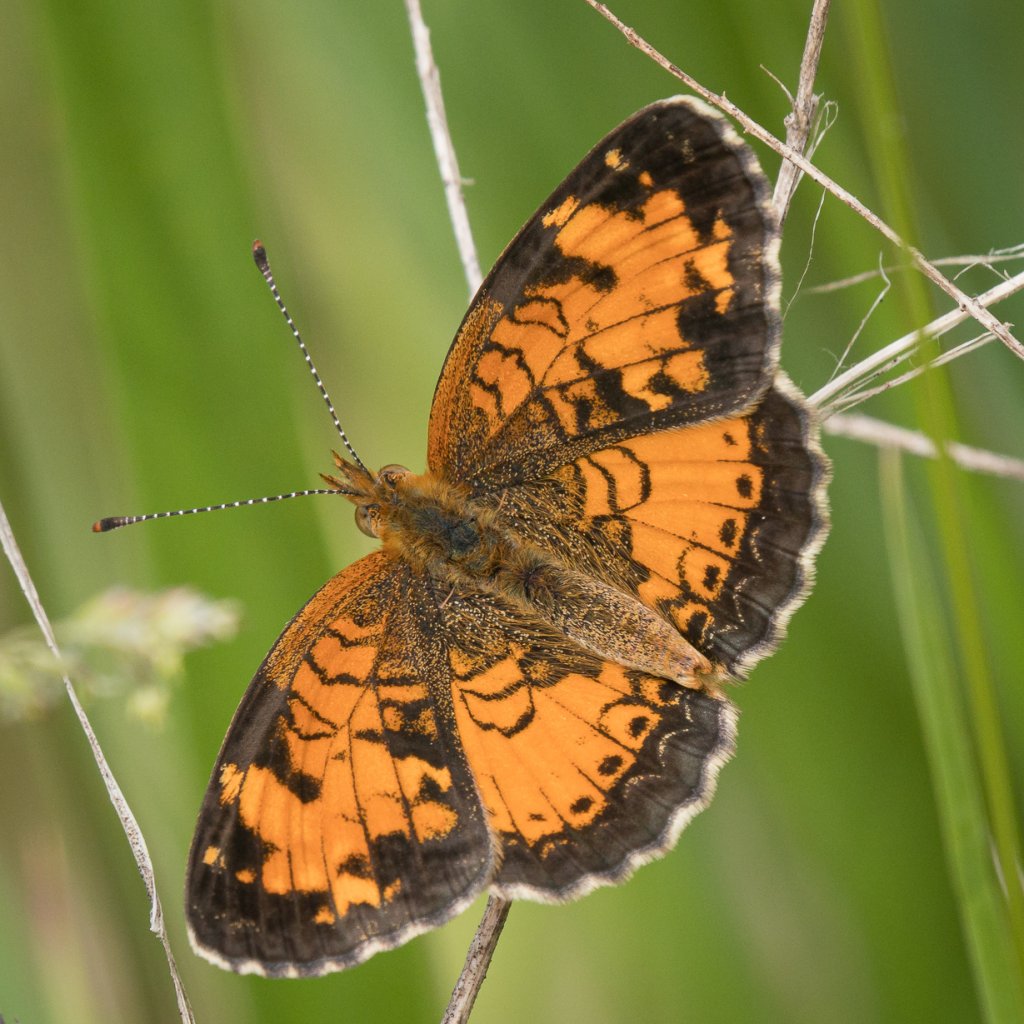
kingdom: Animalia
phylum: Arthropoda
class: Insecta
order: Lepidoptera
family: Nymphalidae
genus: Phyciodes
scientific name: Phyciodes tharos
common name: Northern Crescent
